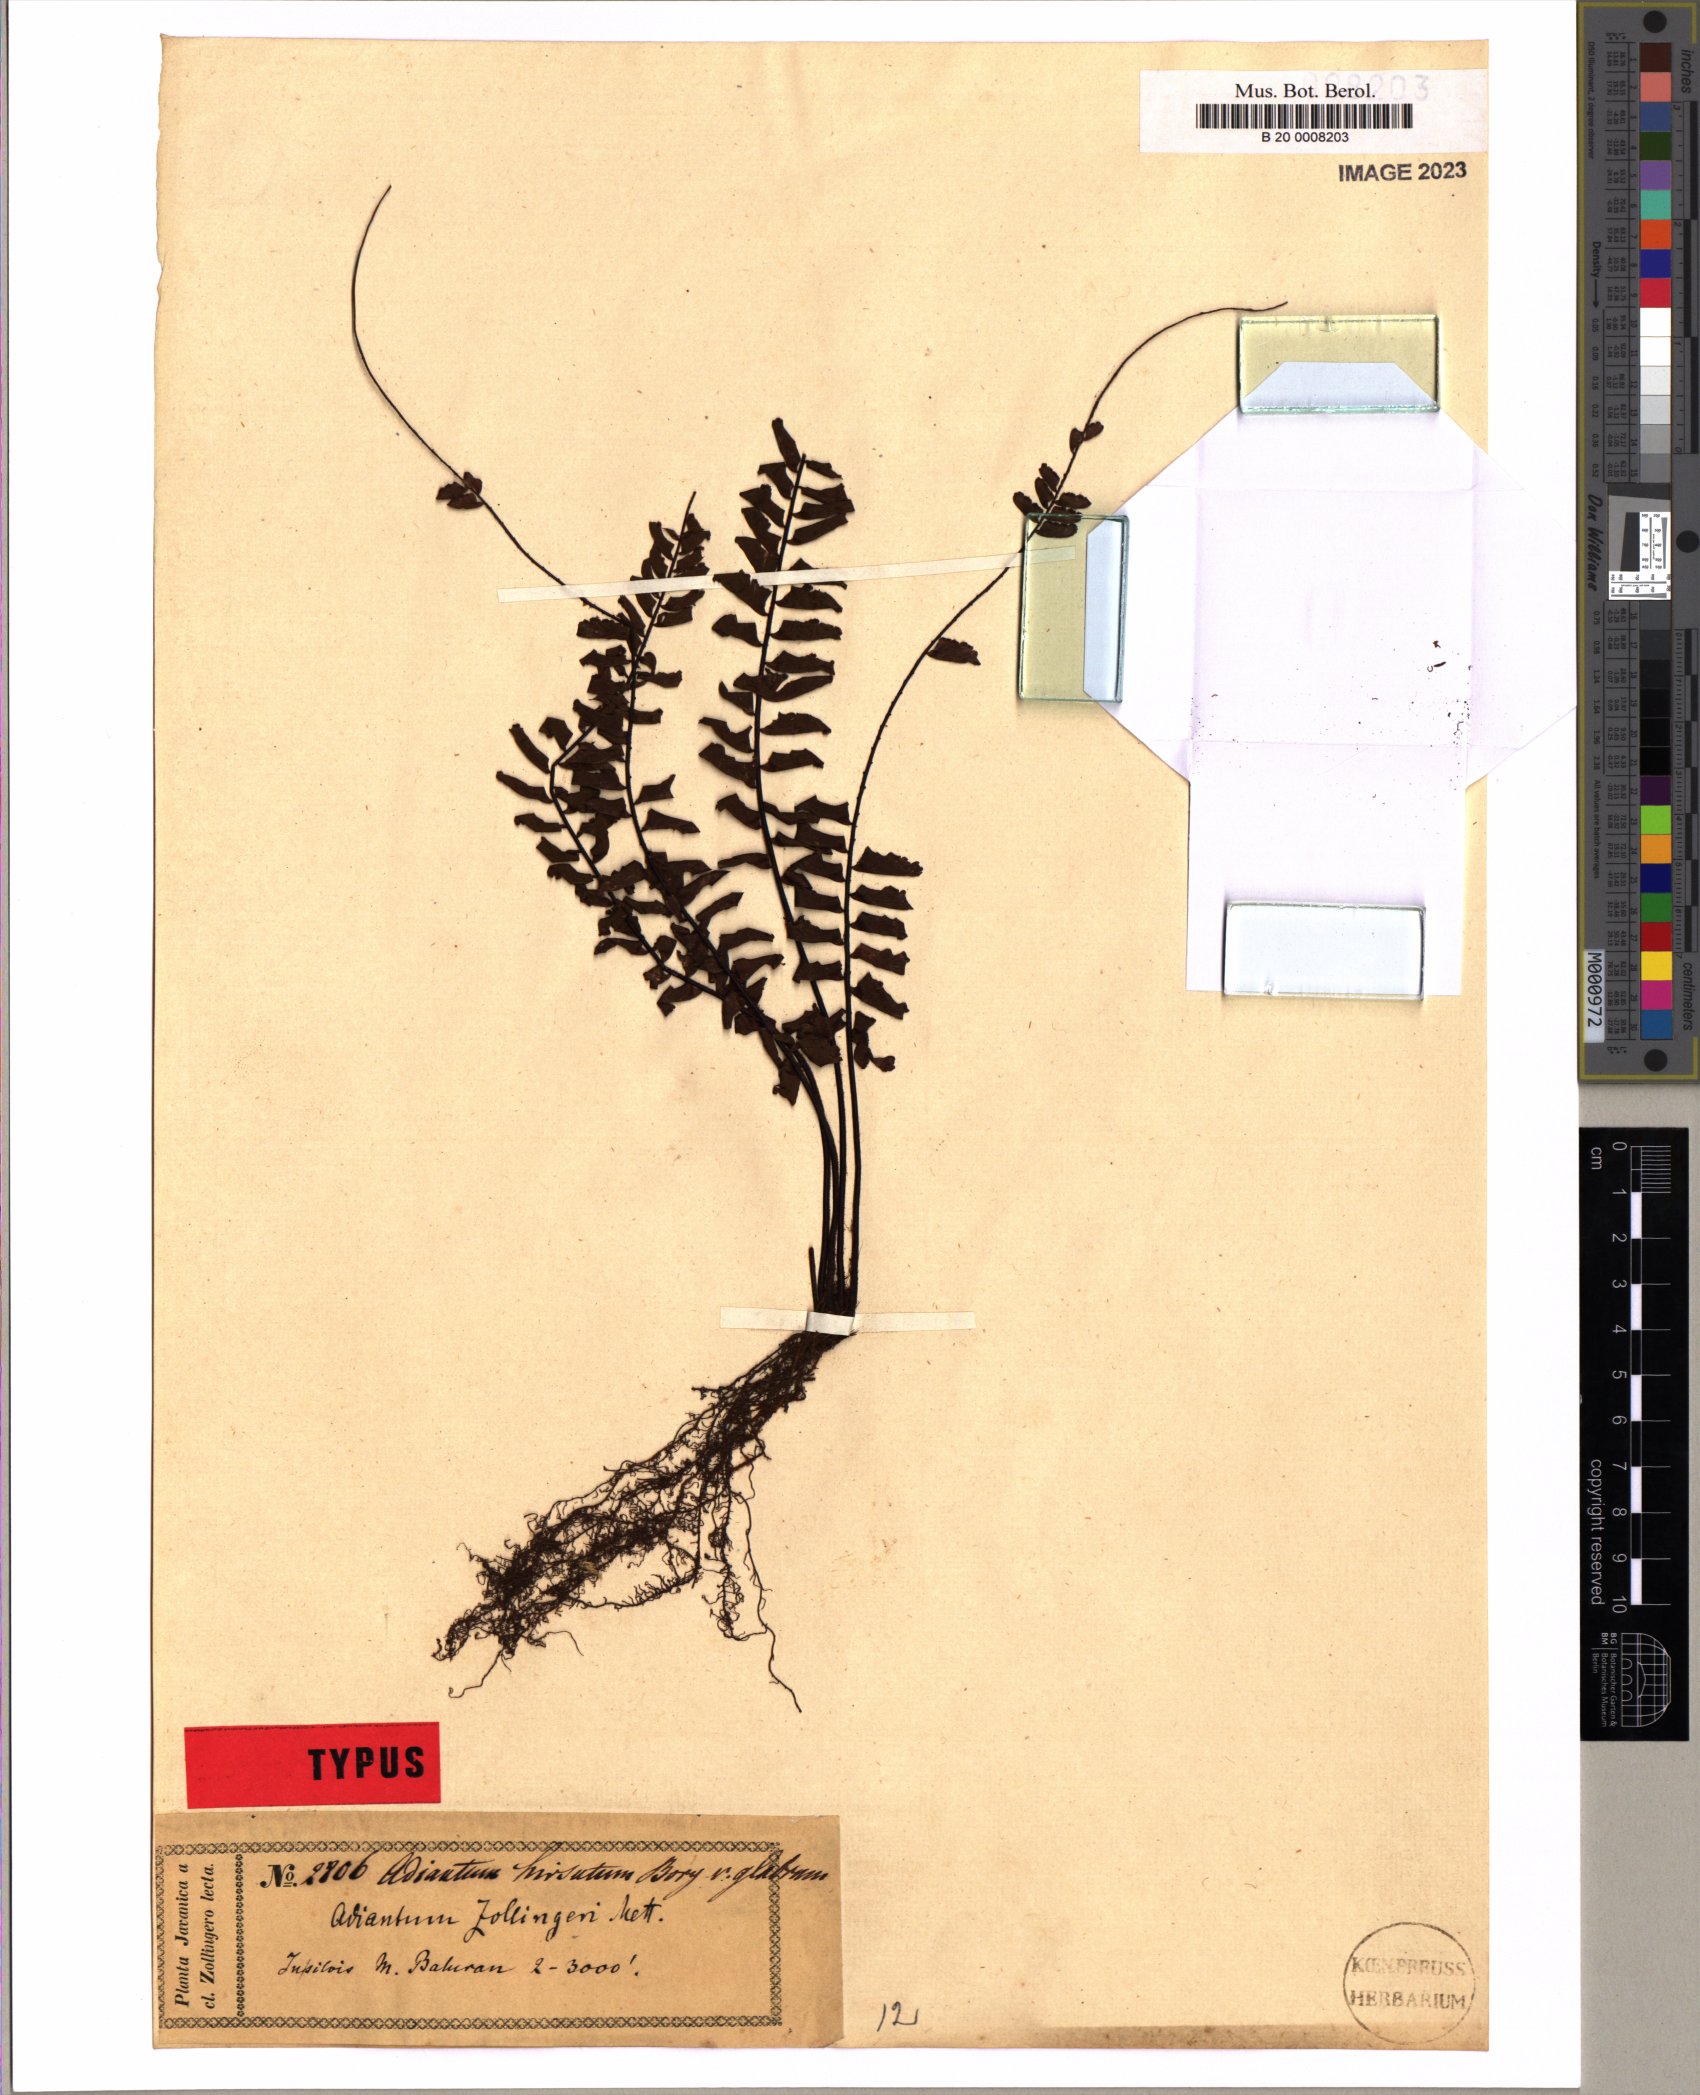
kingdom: Plantae
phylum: Tracheophyta
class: Polypodiopsida
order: Polypodiales
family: Pteridaceae
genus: Adiantum
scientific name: Adiantum zollingeri
